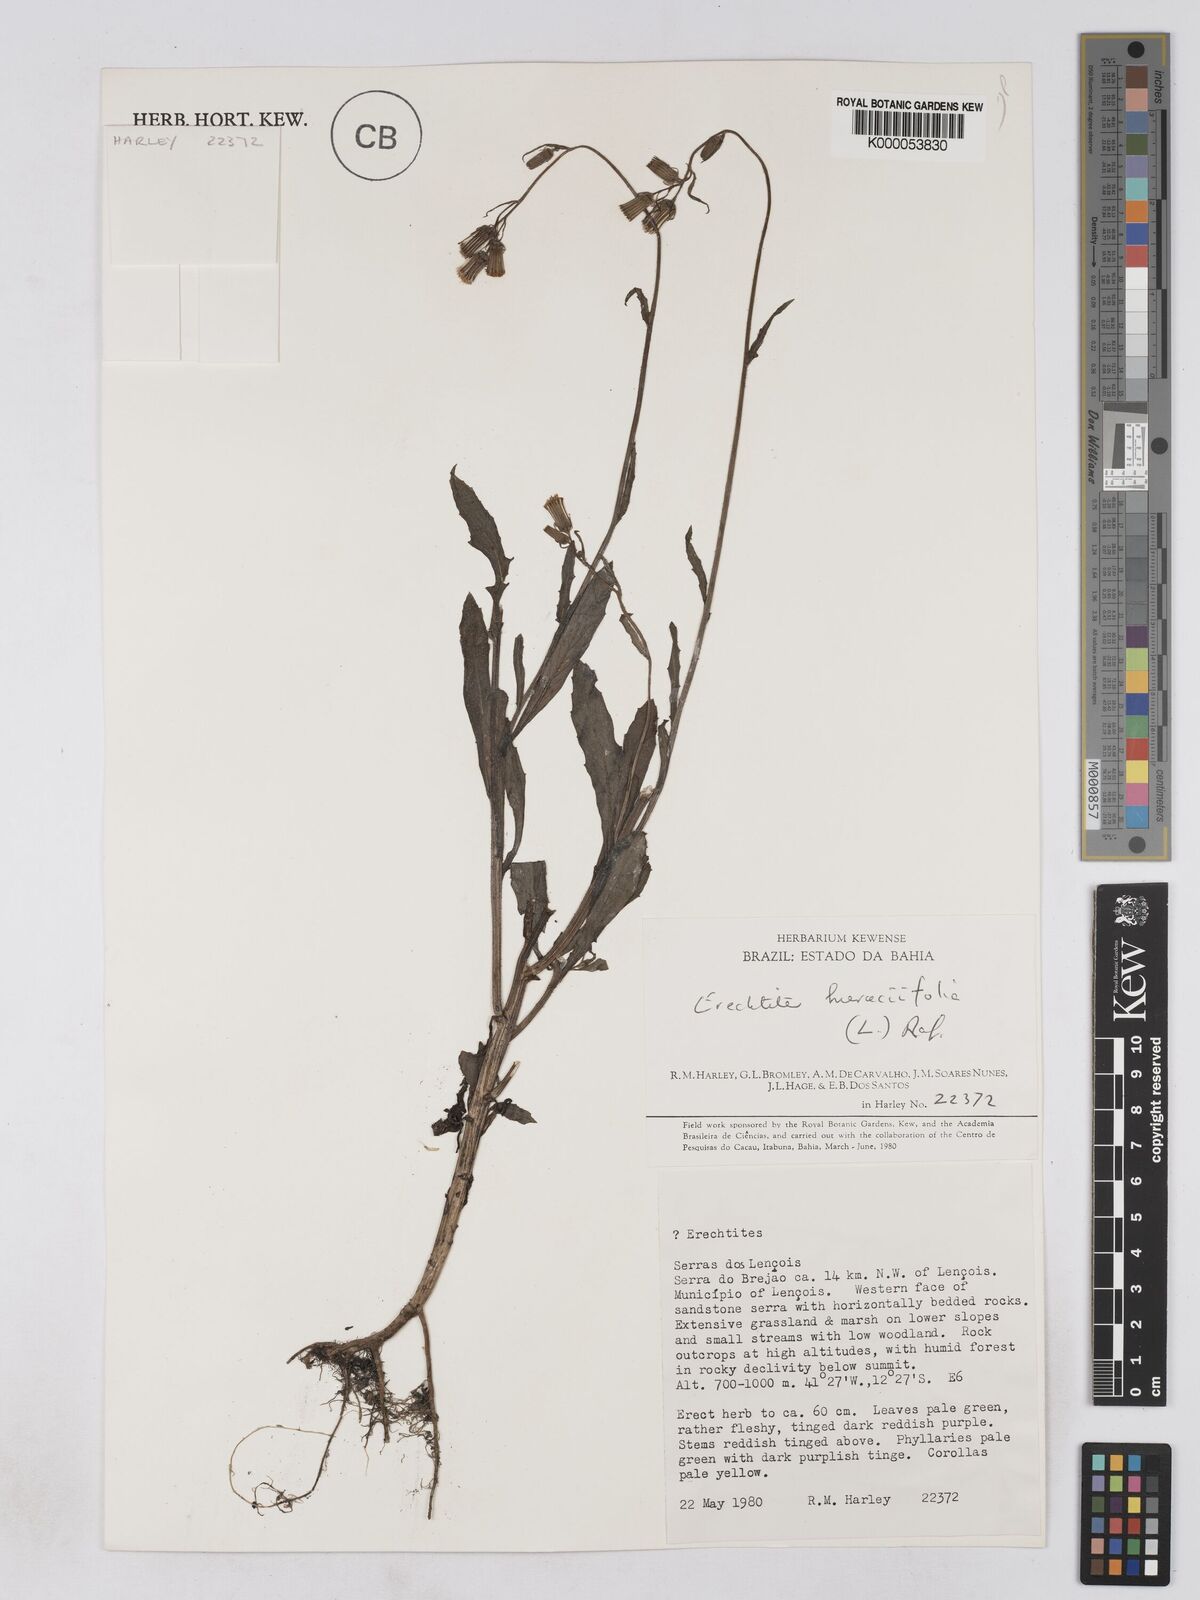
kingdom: Plantae
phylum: Tracheophyta
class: Magnoliopsida
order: Asterales
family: Asteraceae
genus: Erechtites
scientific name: Erechtites hieraciifolius
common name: American burnweed
